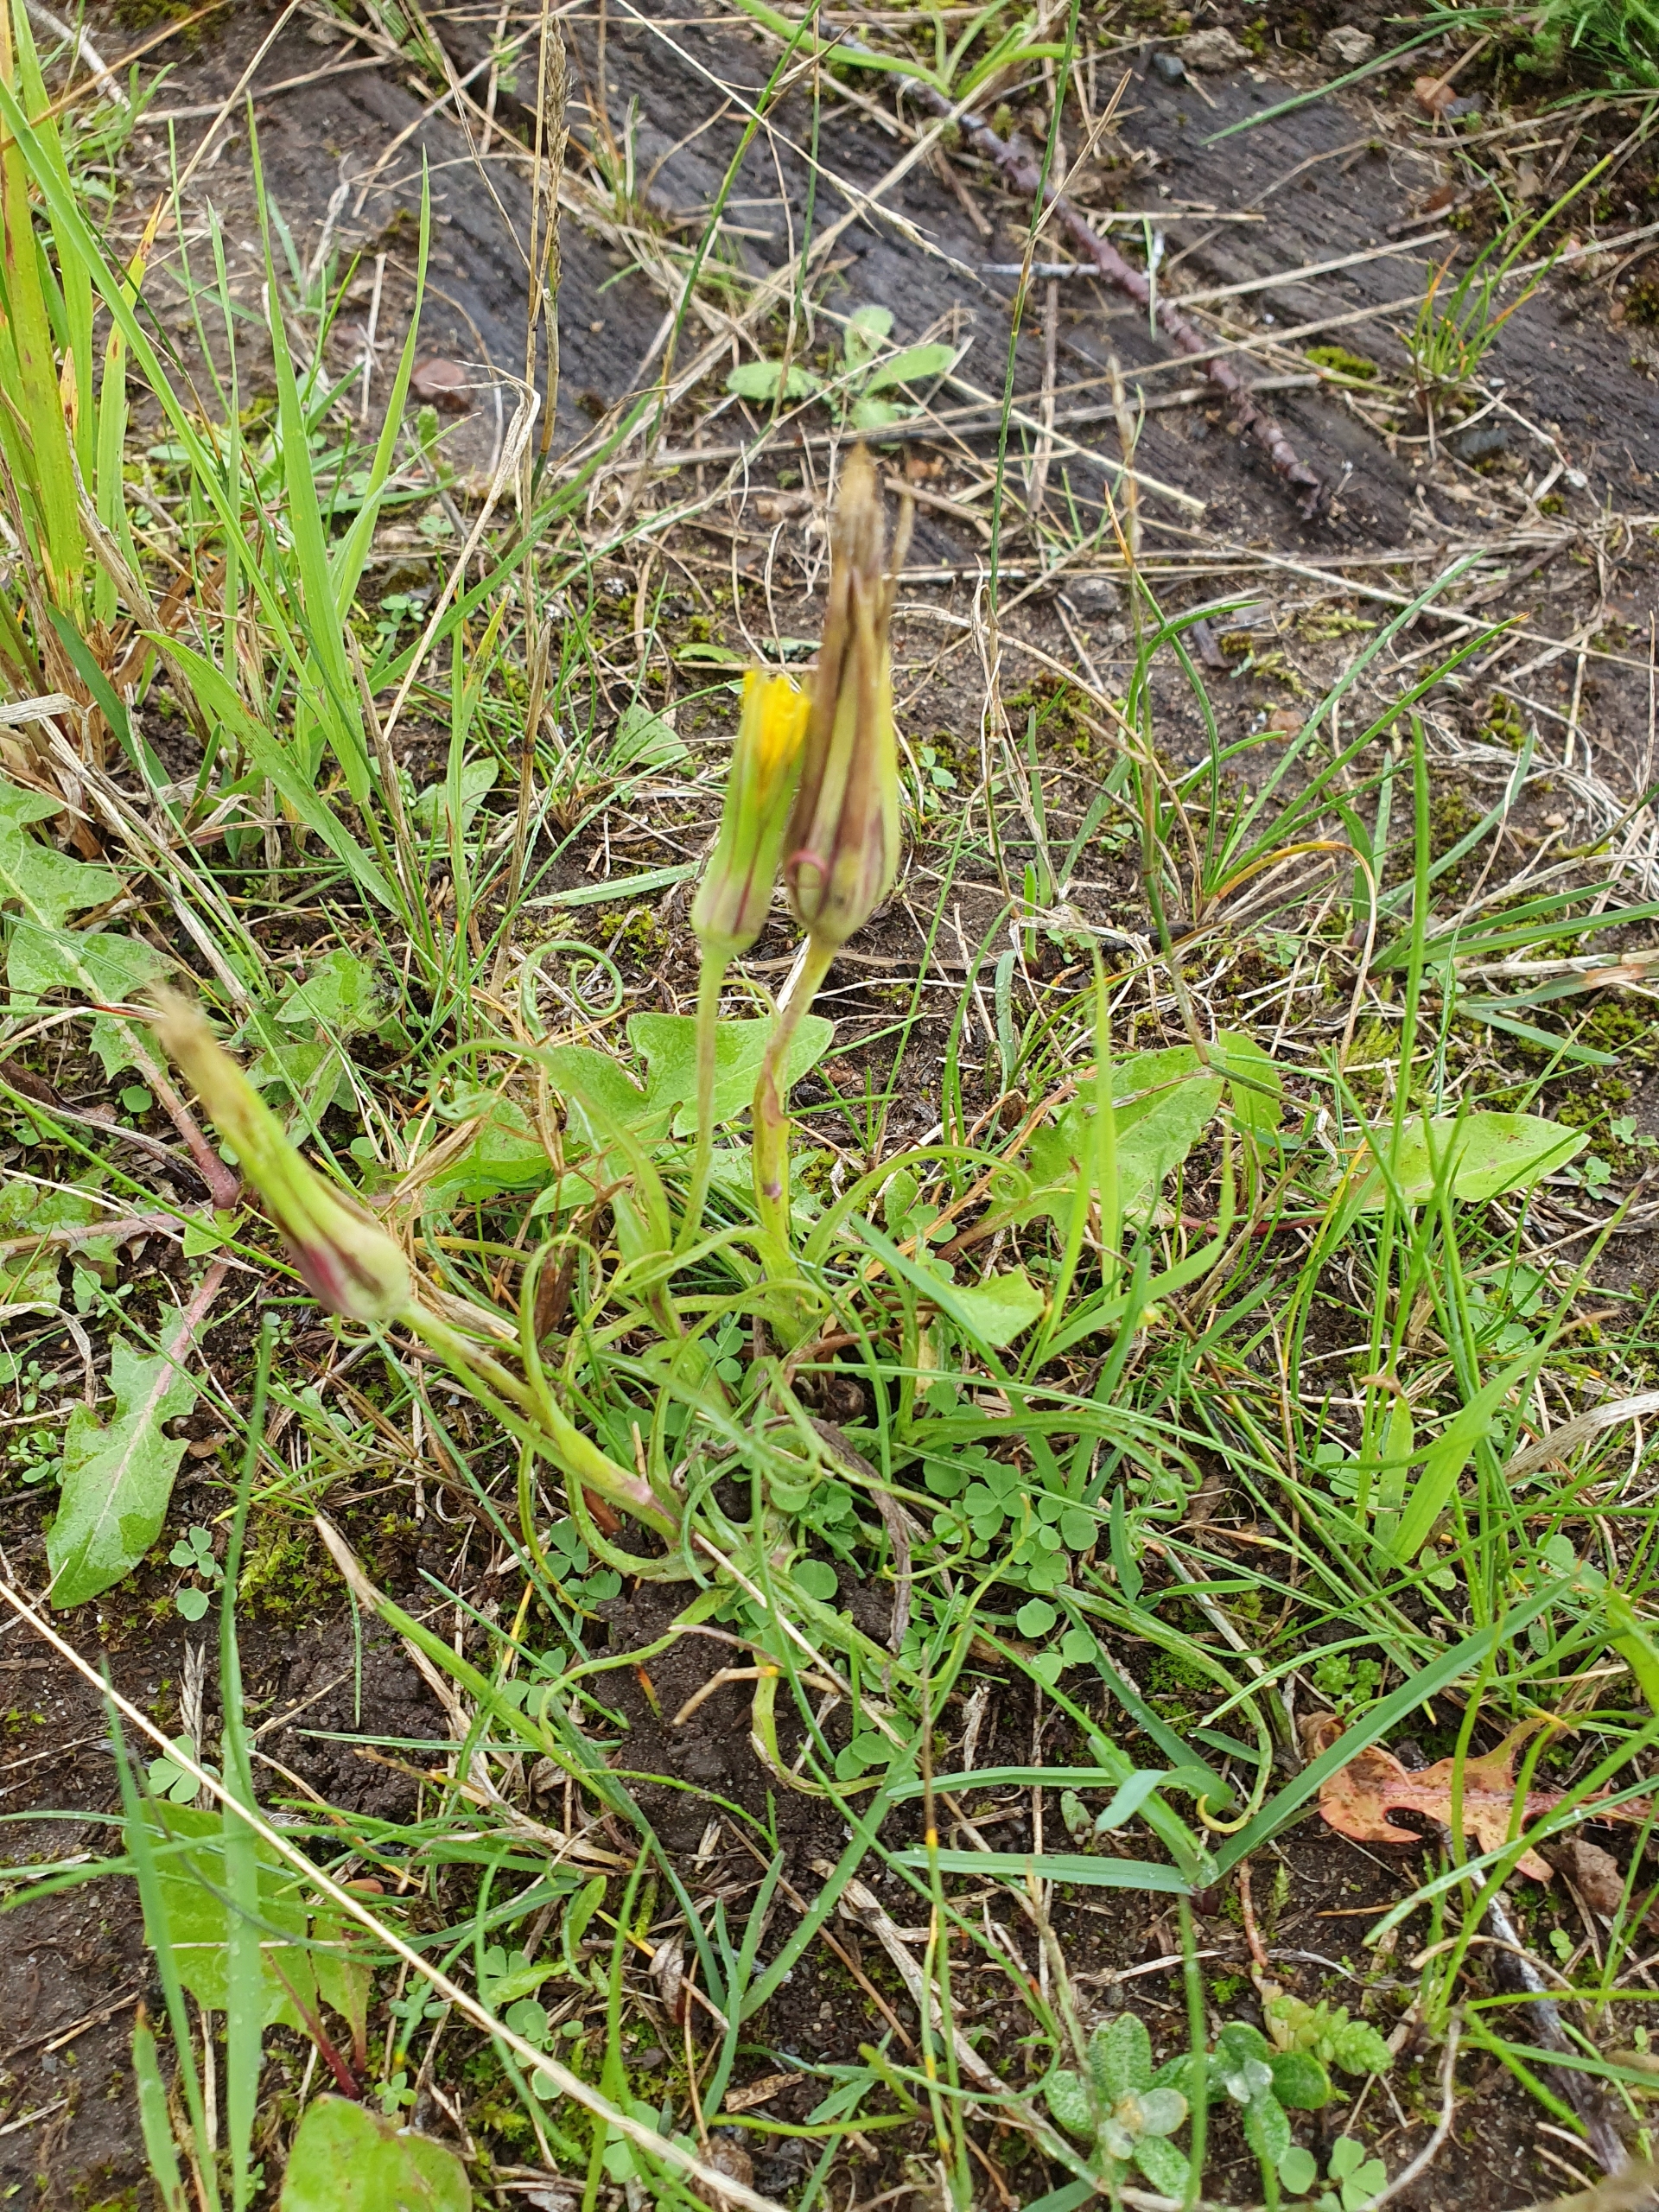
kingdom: Plantae
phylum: Tracheophyta
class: Magnoliopsida
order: Asterales
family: Asteraceae
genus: Tragopogon
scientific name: Tragopogon pratensis
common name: Gedeskæg
